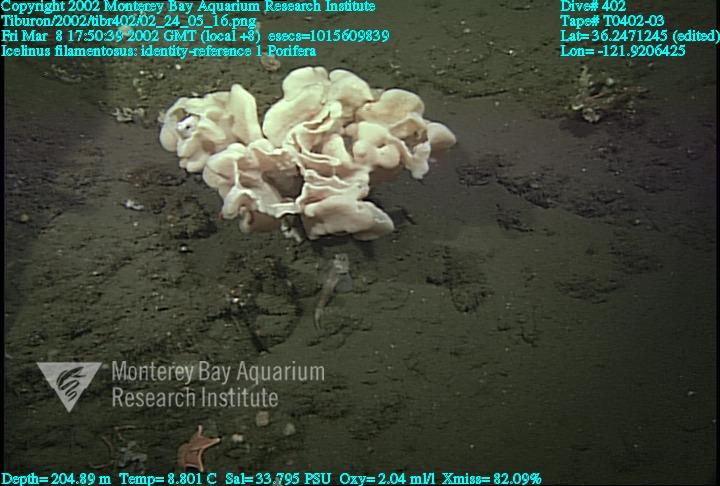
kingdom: Animalia
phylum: Porifera
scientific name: Porifera
